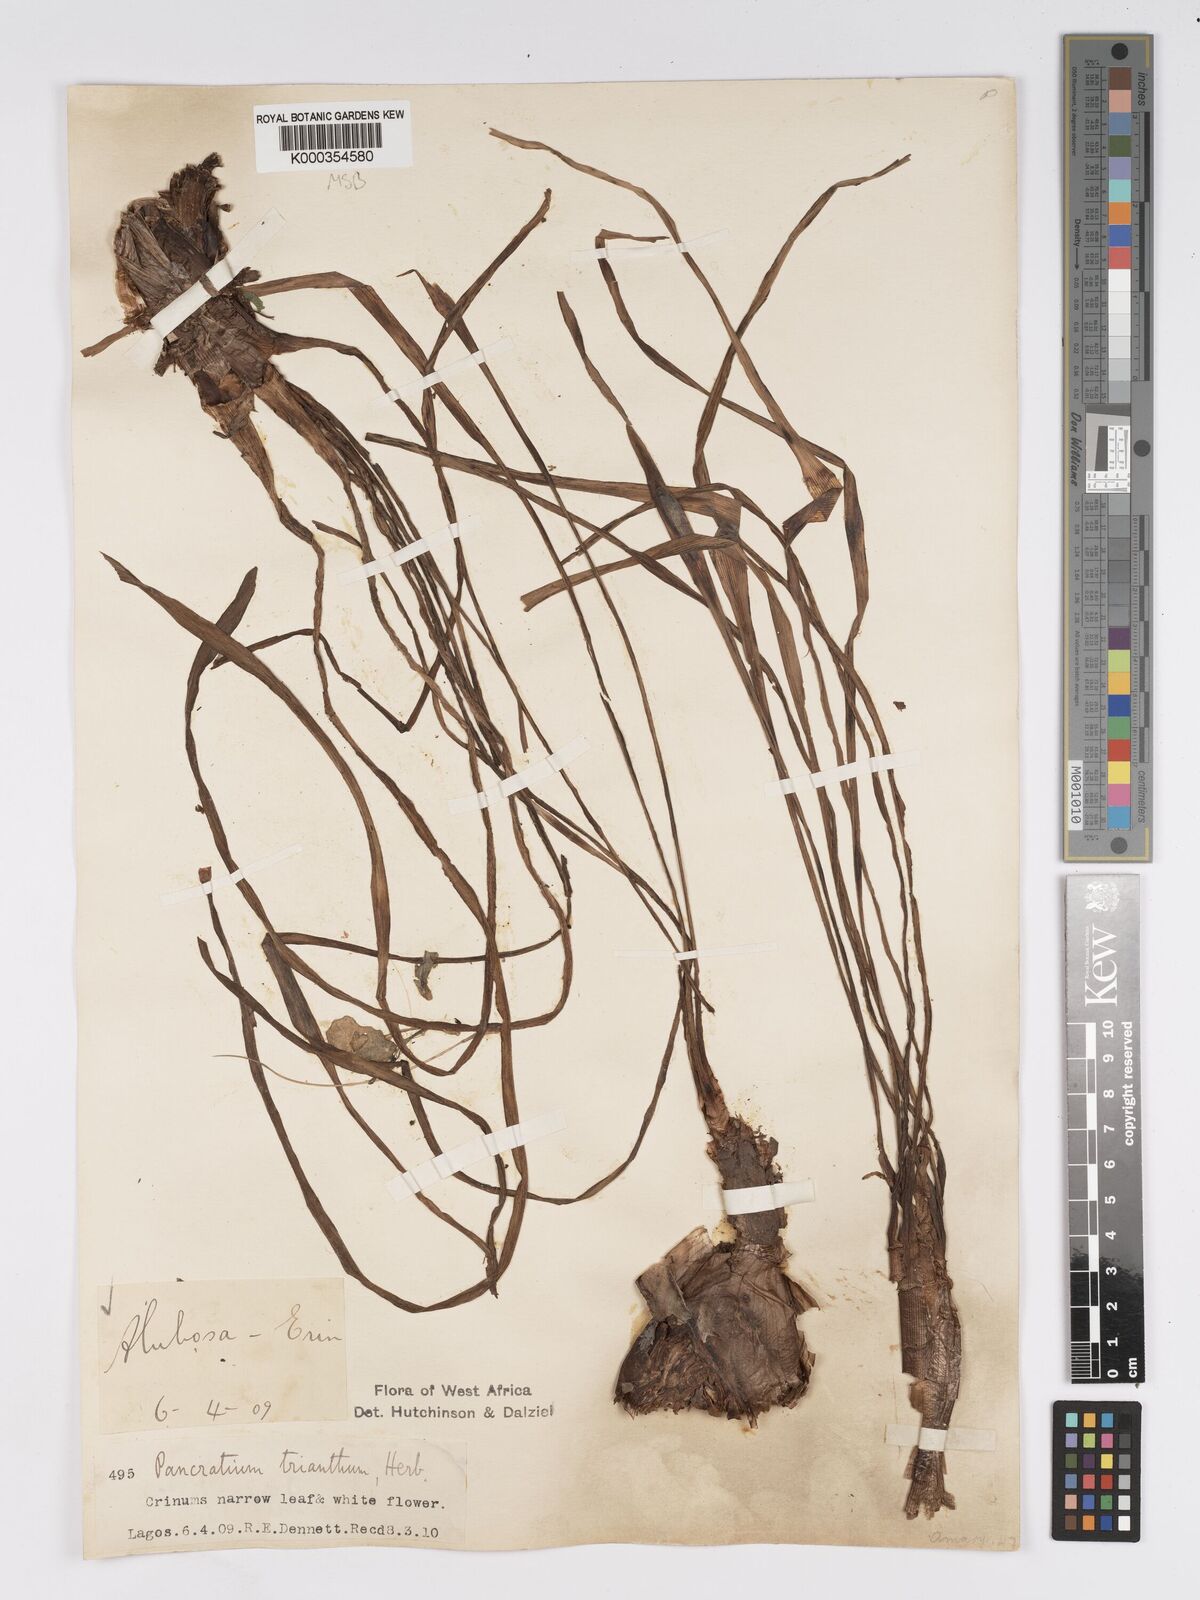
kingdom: Plantae
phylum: Tracheophyta
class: Liliopsida
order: Asparagales
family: Amaryllidaceae
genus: Pancratium
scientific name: Pancratium trianthum
